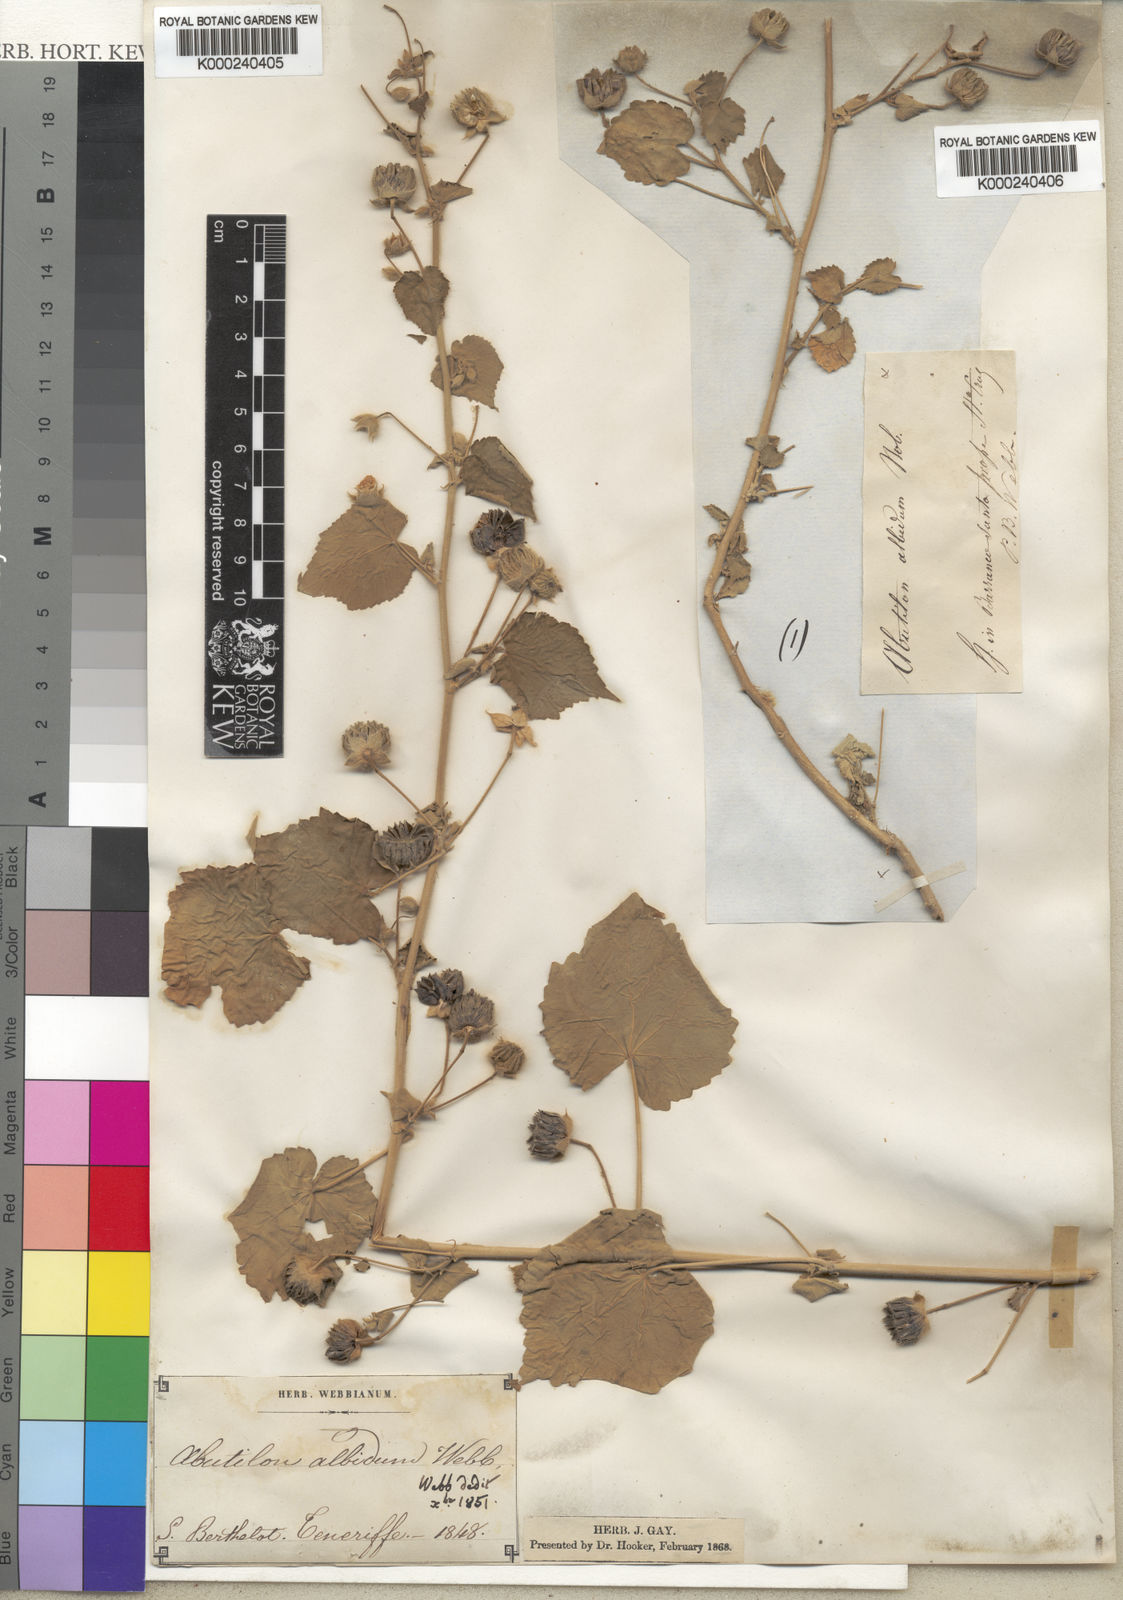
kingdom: Plantae
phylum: Tracheophyta
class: Magnoliopsida
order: Malvales
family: Malvaceae
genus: Abutilon
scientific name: Abutilon
